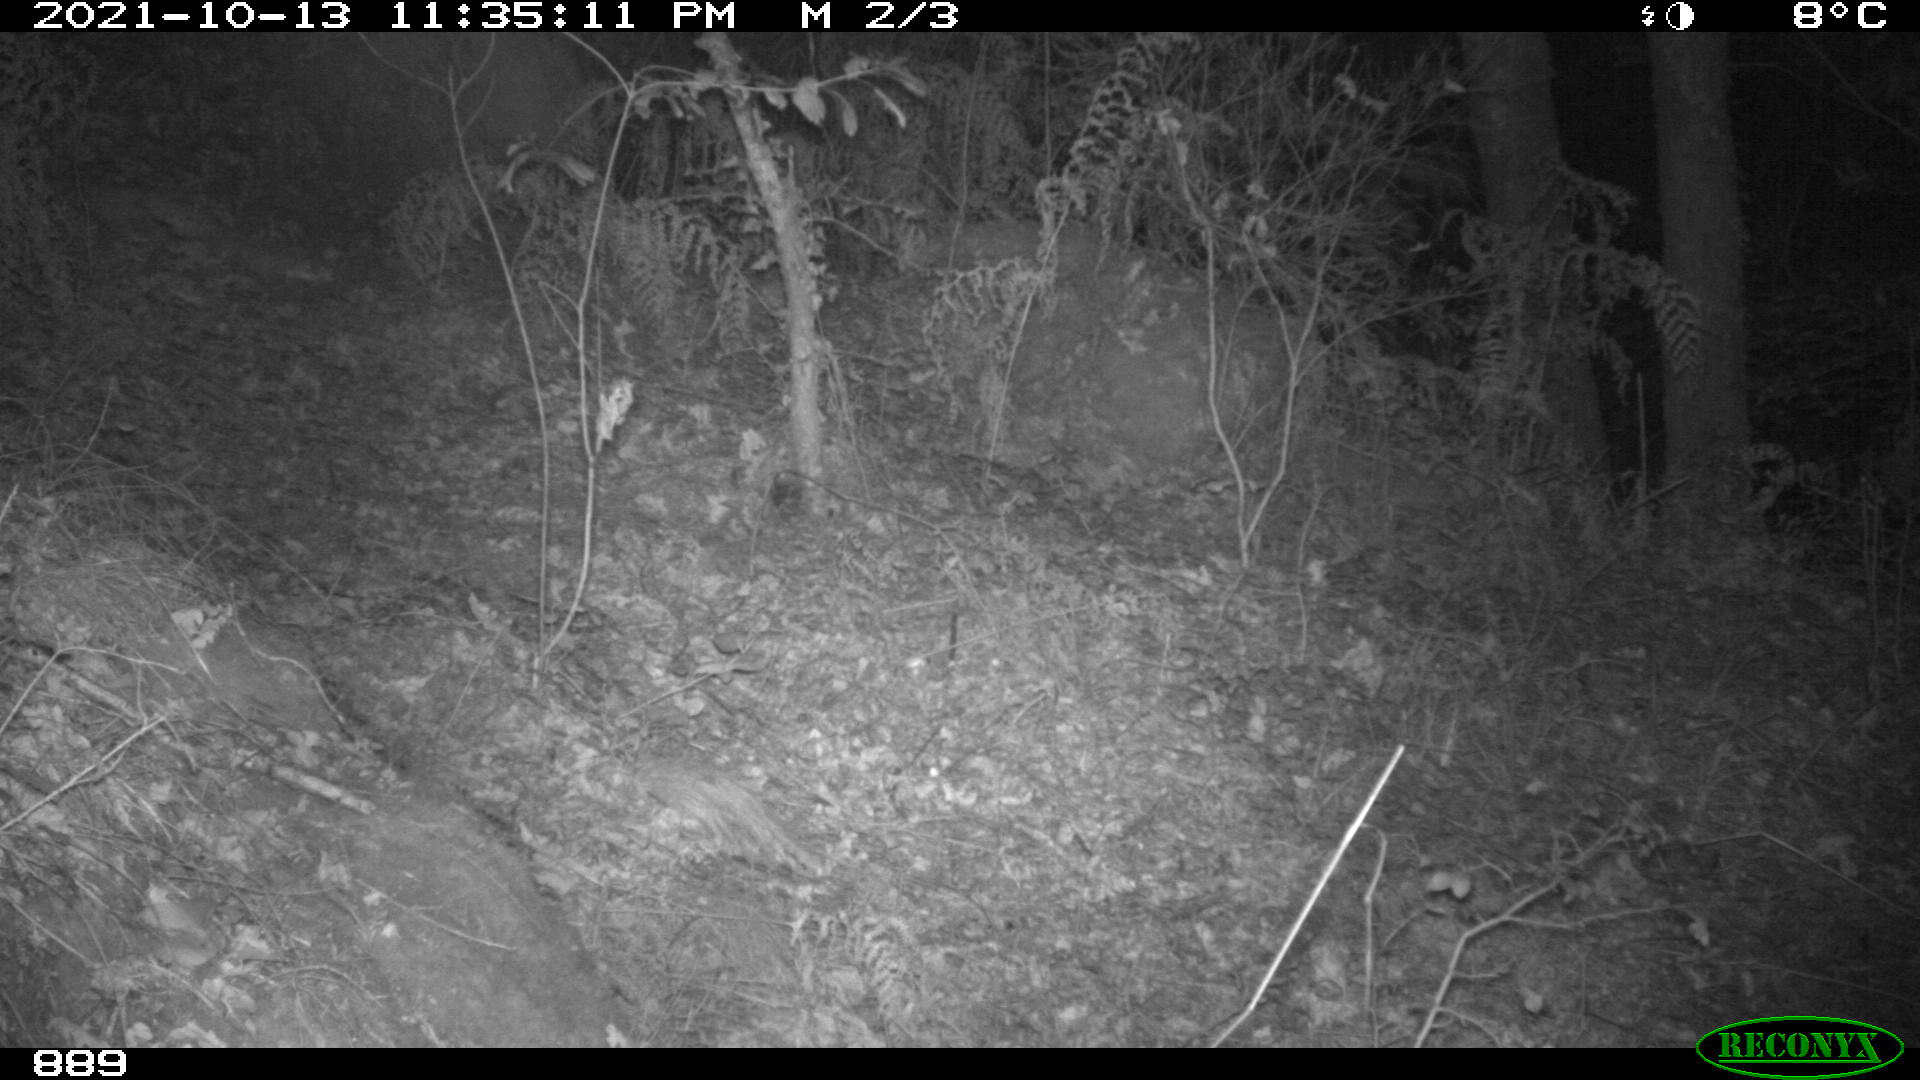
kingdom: Animalia
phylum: Chordata
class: Mammalia
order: Artiodactyla
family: Cervidae
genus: Capreolus
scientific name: Capreolus capreolus
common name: Western roe deer
